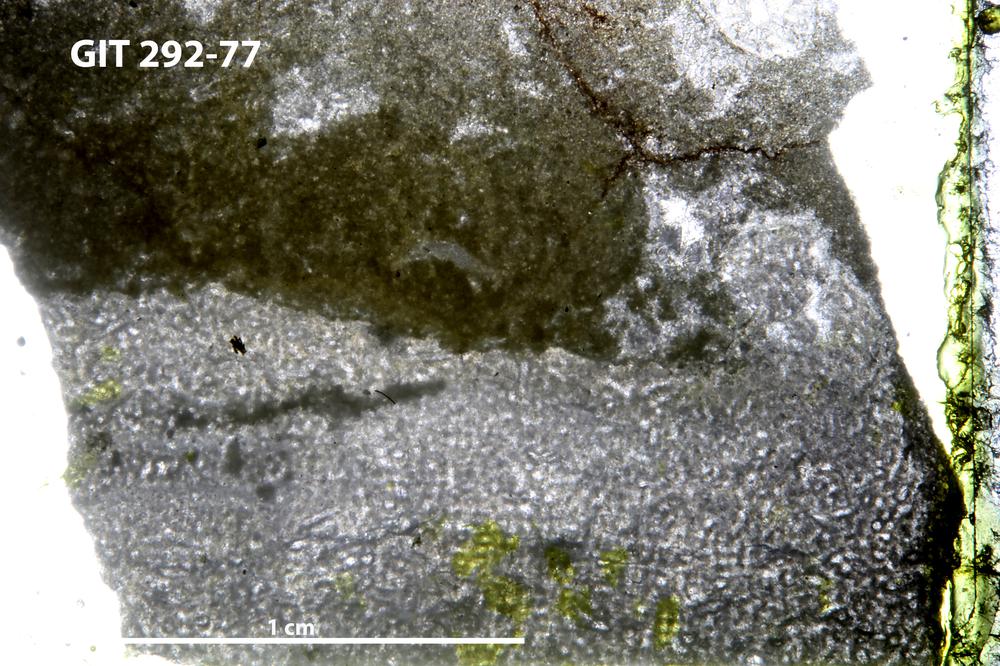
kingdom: Animalia
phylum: Porifera
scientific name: Porifera
